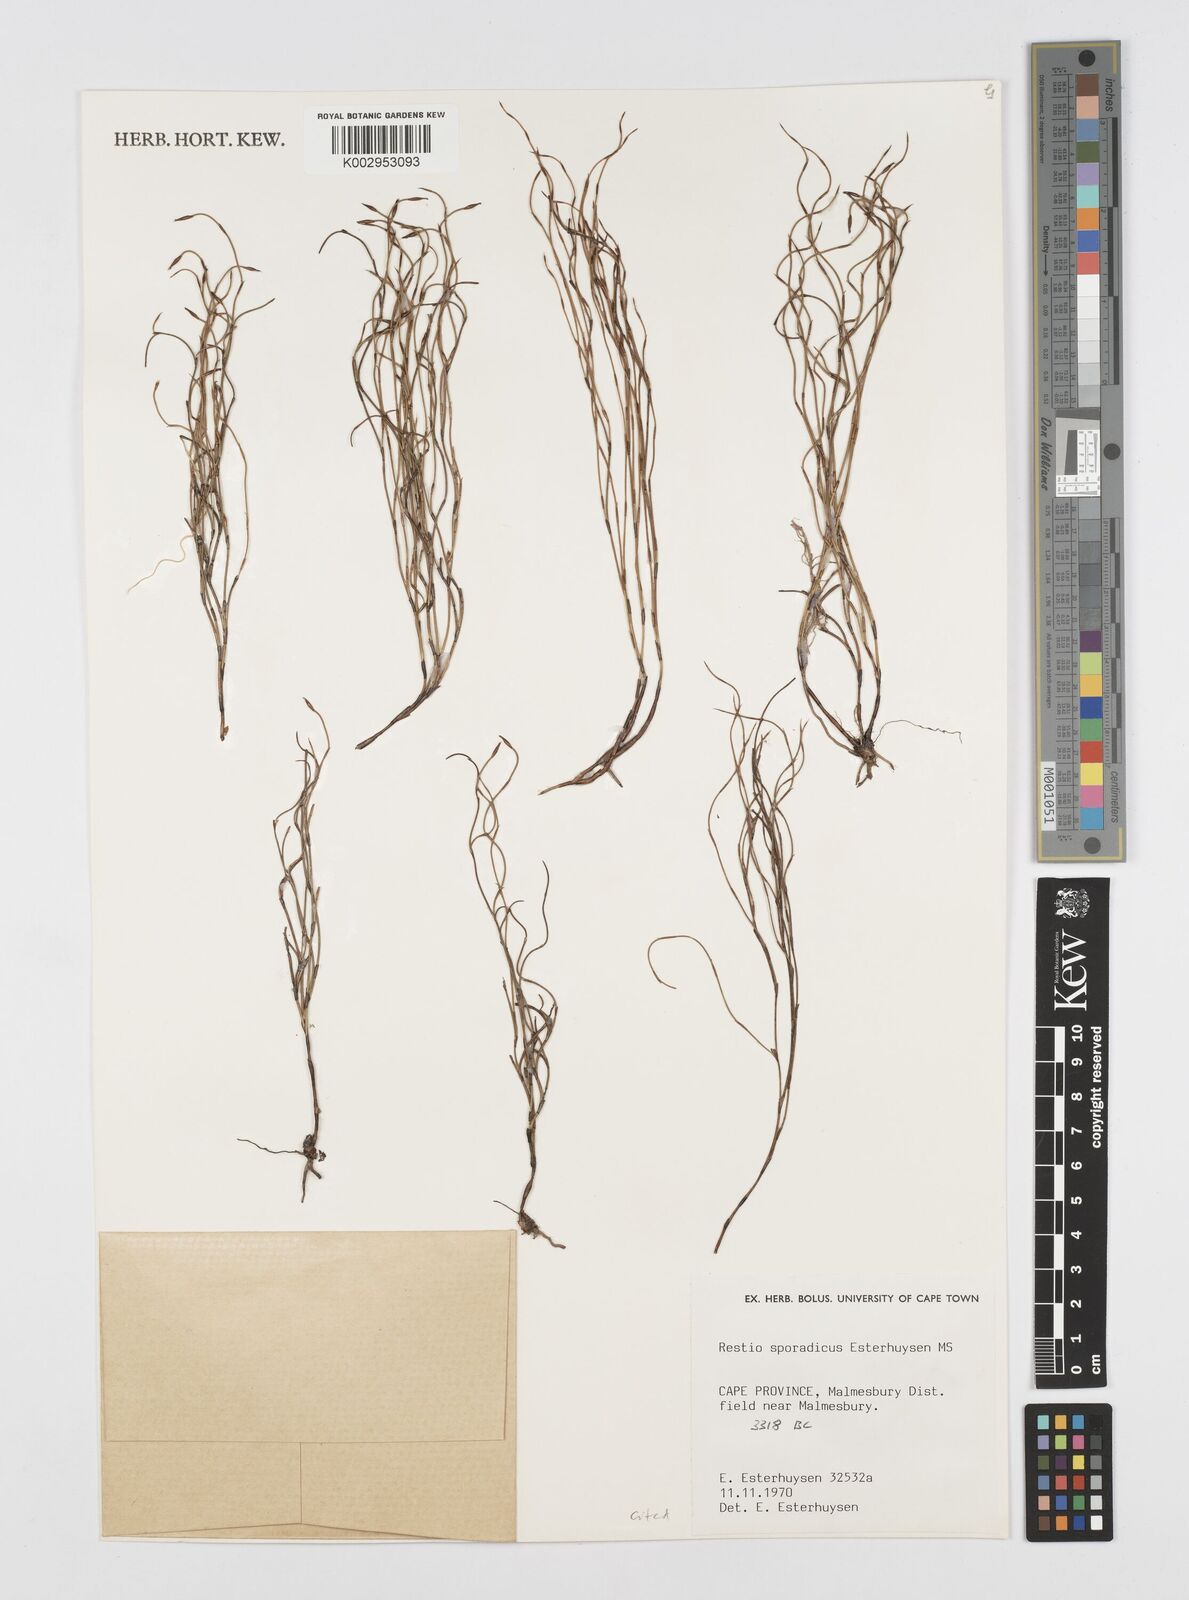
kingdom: Plantae
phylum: Tracheophyta
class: Liliopsida
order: Poales
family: Restionaceae
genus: Restio
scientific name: Restio sporadicus
